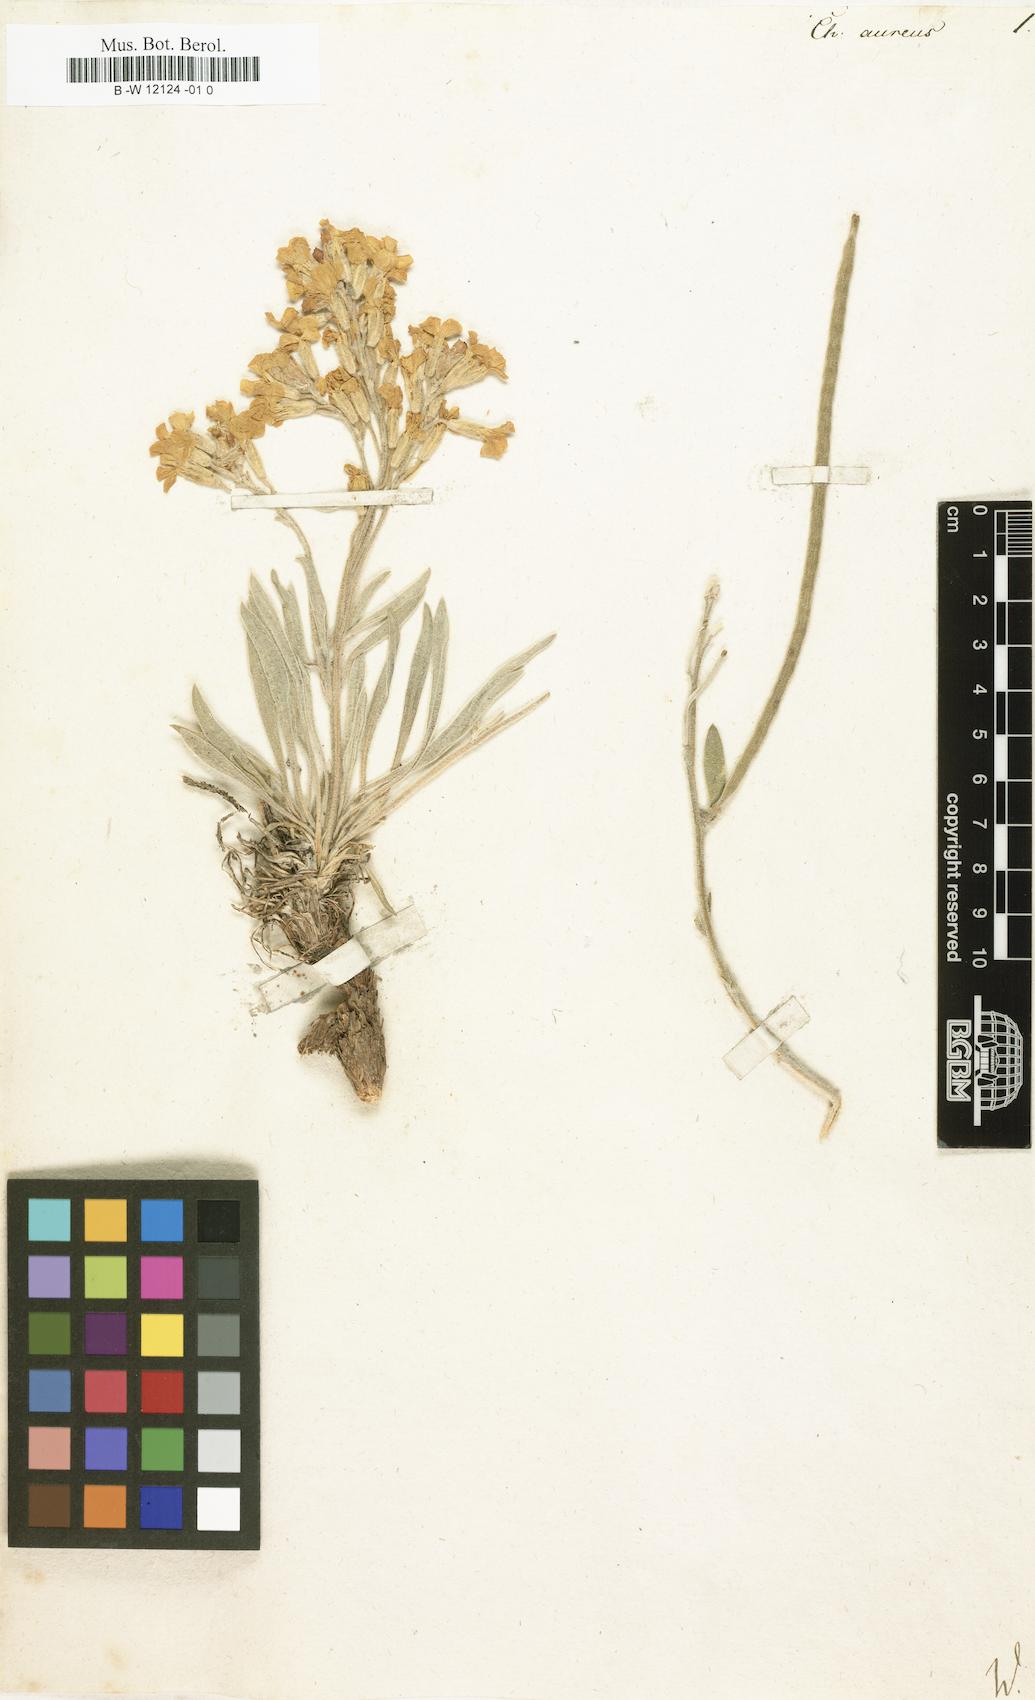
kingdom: Plantae
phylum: Tracheophyta
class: Magnoliopsida
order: Brassicales
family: Brassicaceae
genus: Anchonium
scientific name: Anchonium elichrysifolium
